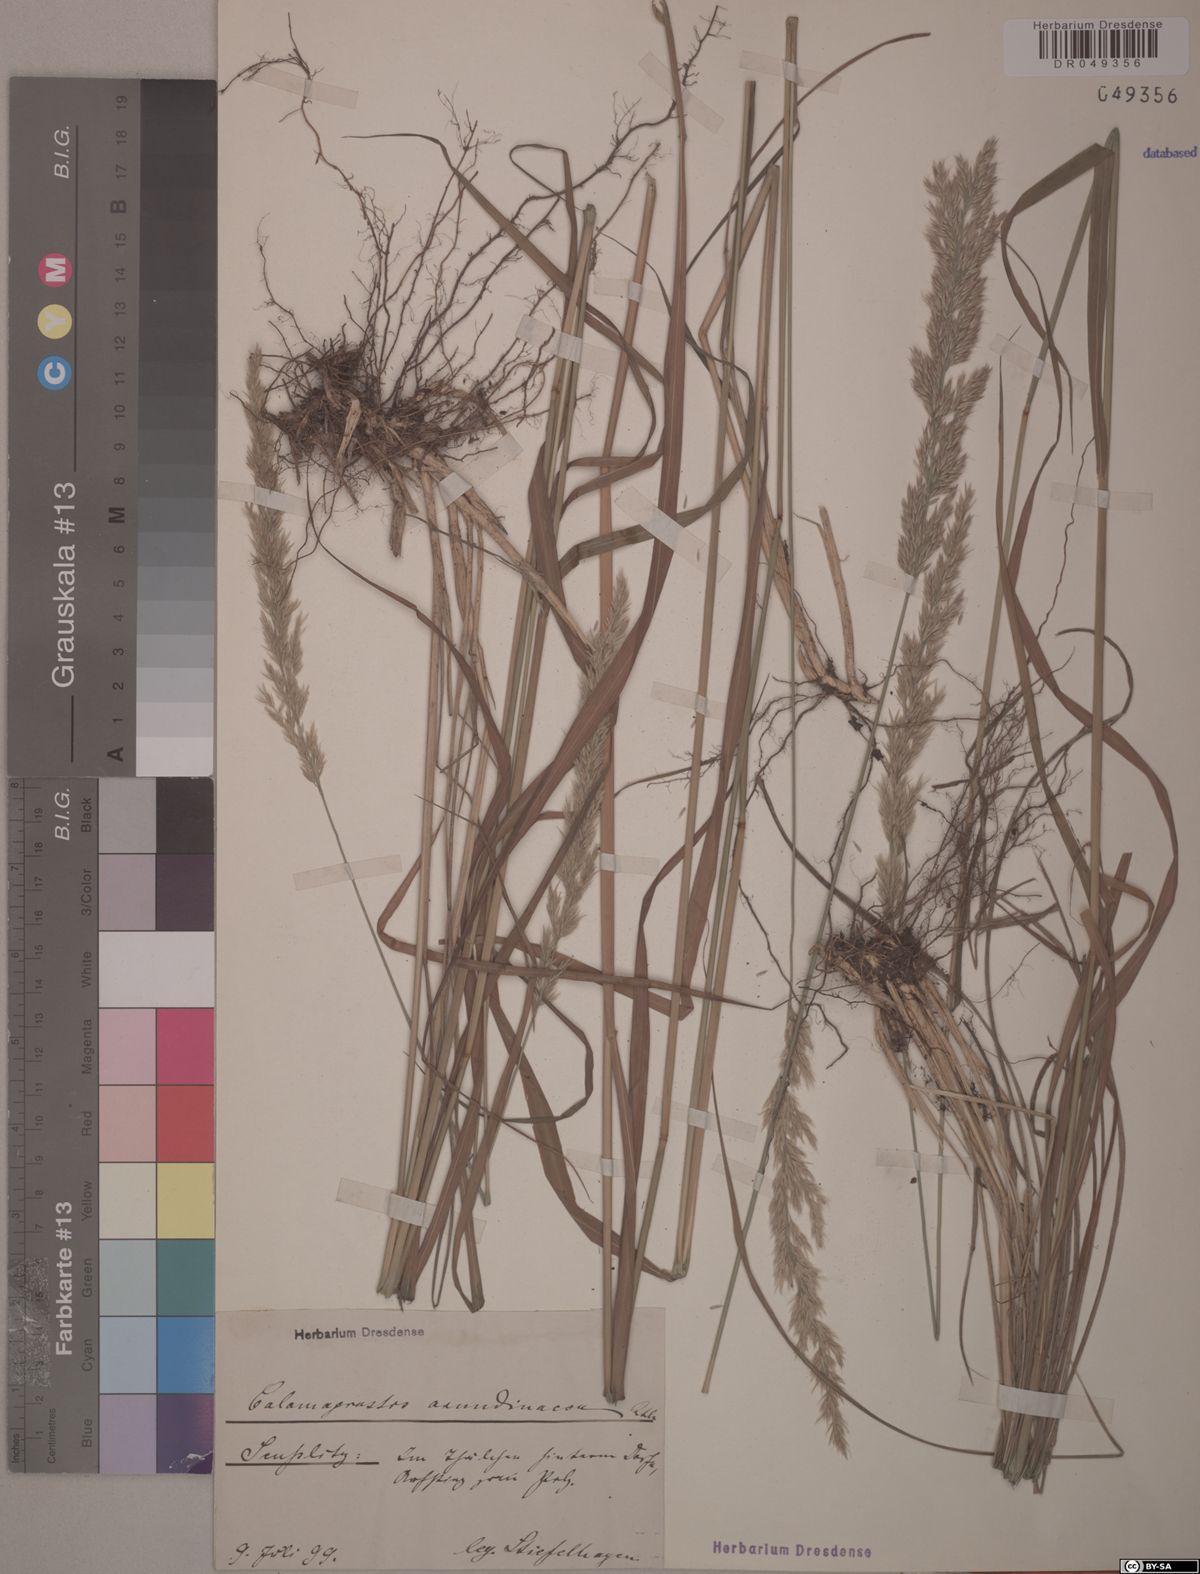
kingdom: Plantae
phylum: Tracheophyta
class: Liliopsida
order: Poales
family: Poaceae
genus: Calamagrostis
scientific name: Calamagrostis arundinacea
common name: Metskastik
